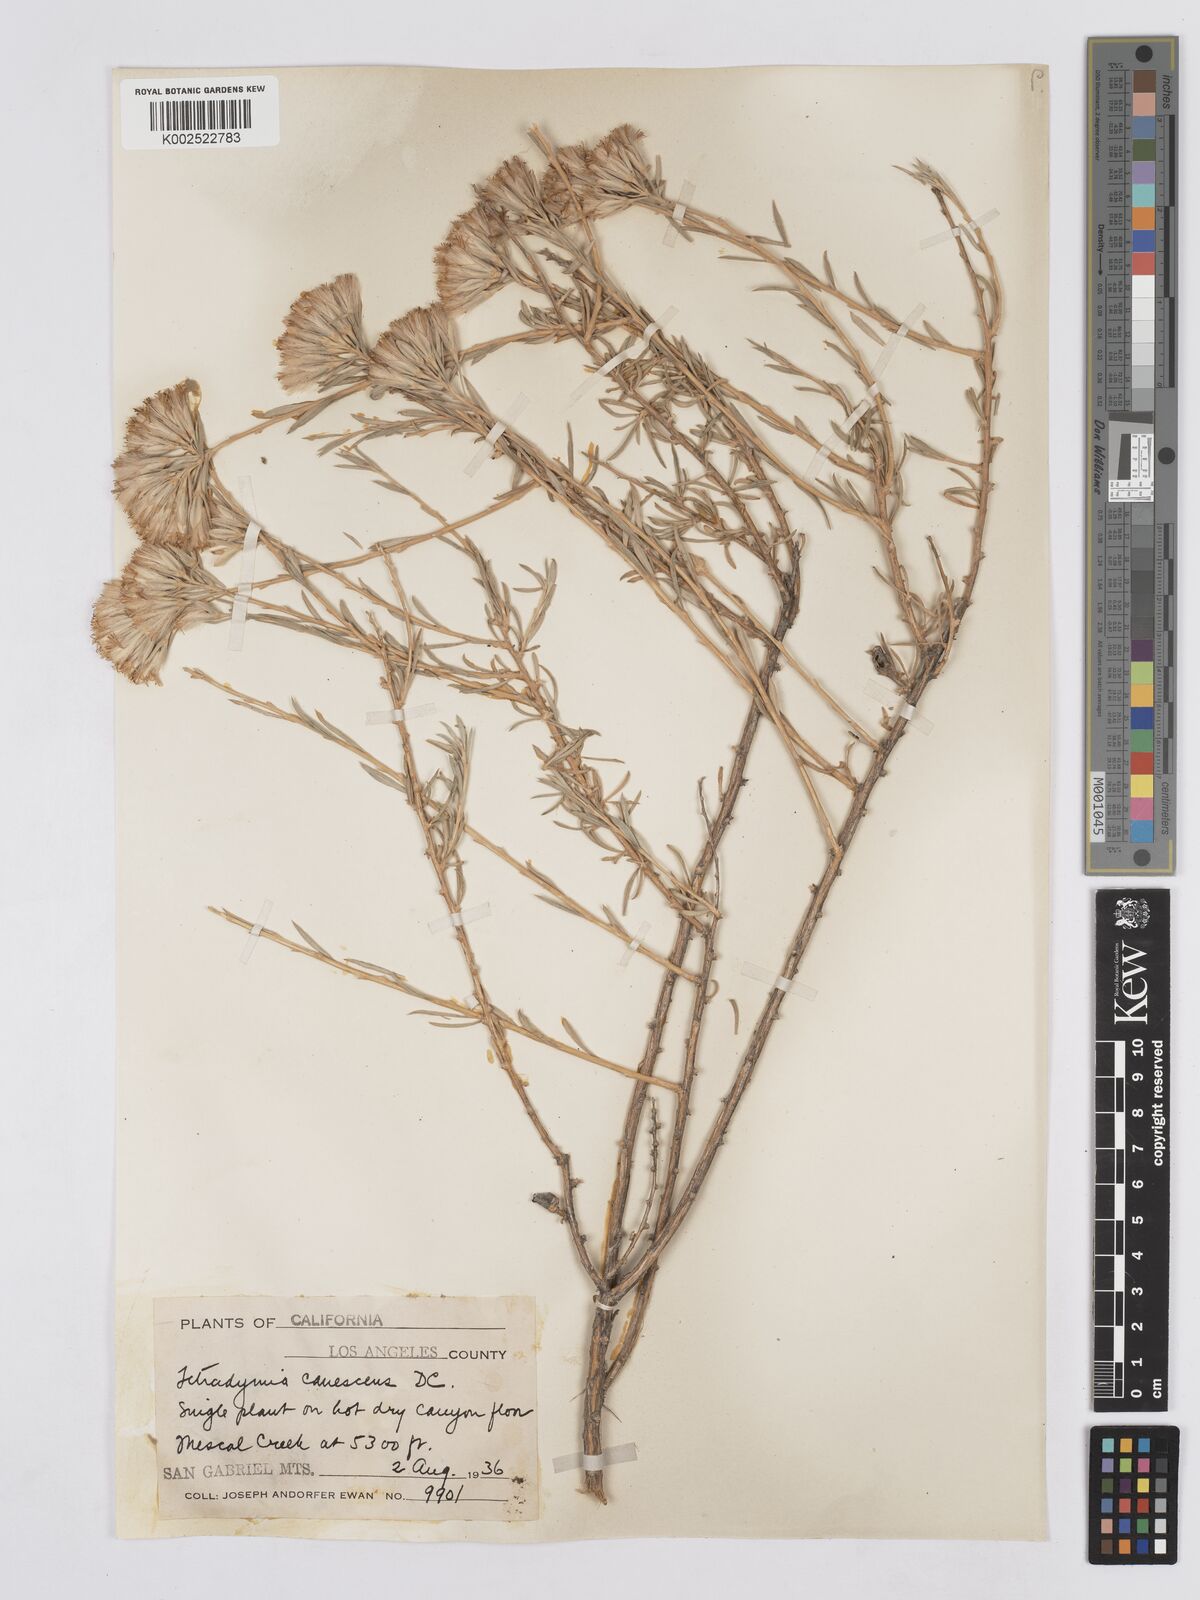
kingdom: Plantae
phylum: Tracheophyta
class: Magnoliopsida
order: Asterales
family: Asteraceae
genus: Tetradymia
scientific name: Tetradymia canescens
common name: Spineless horsebrush
